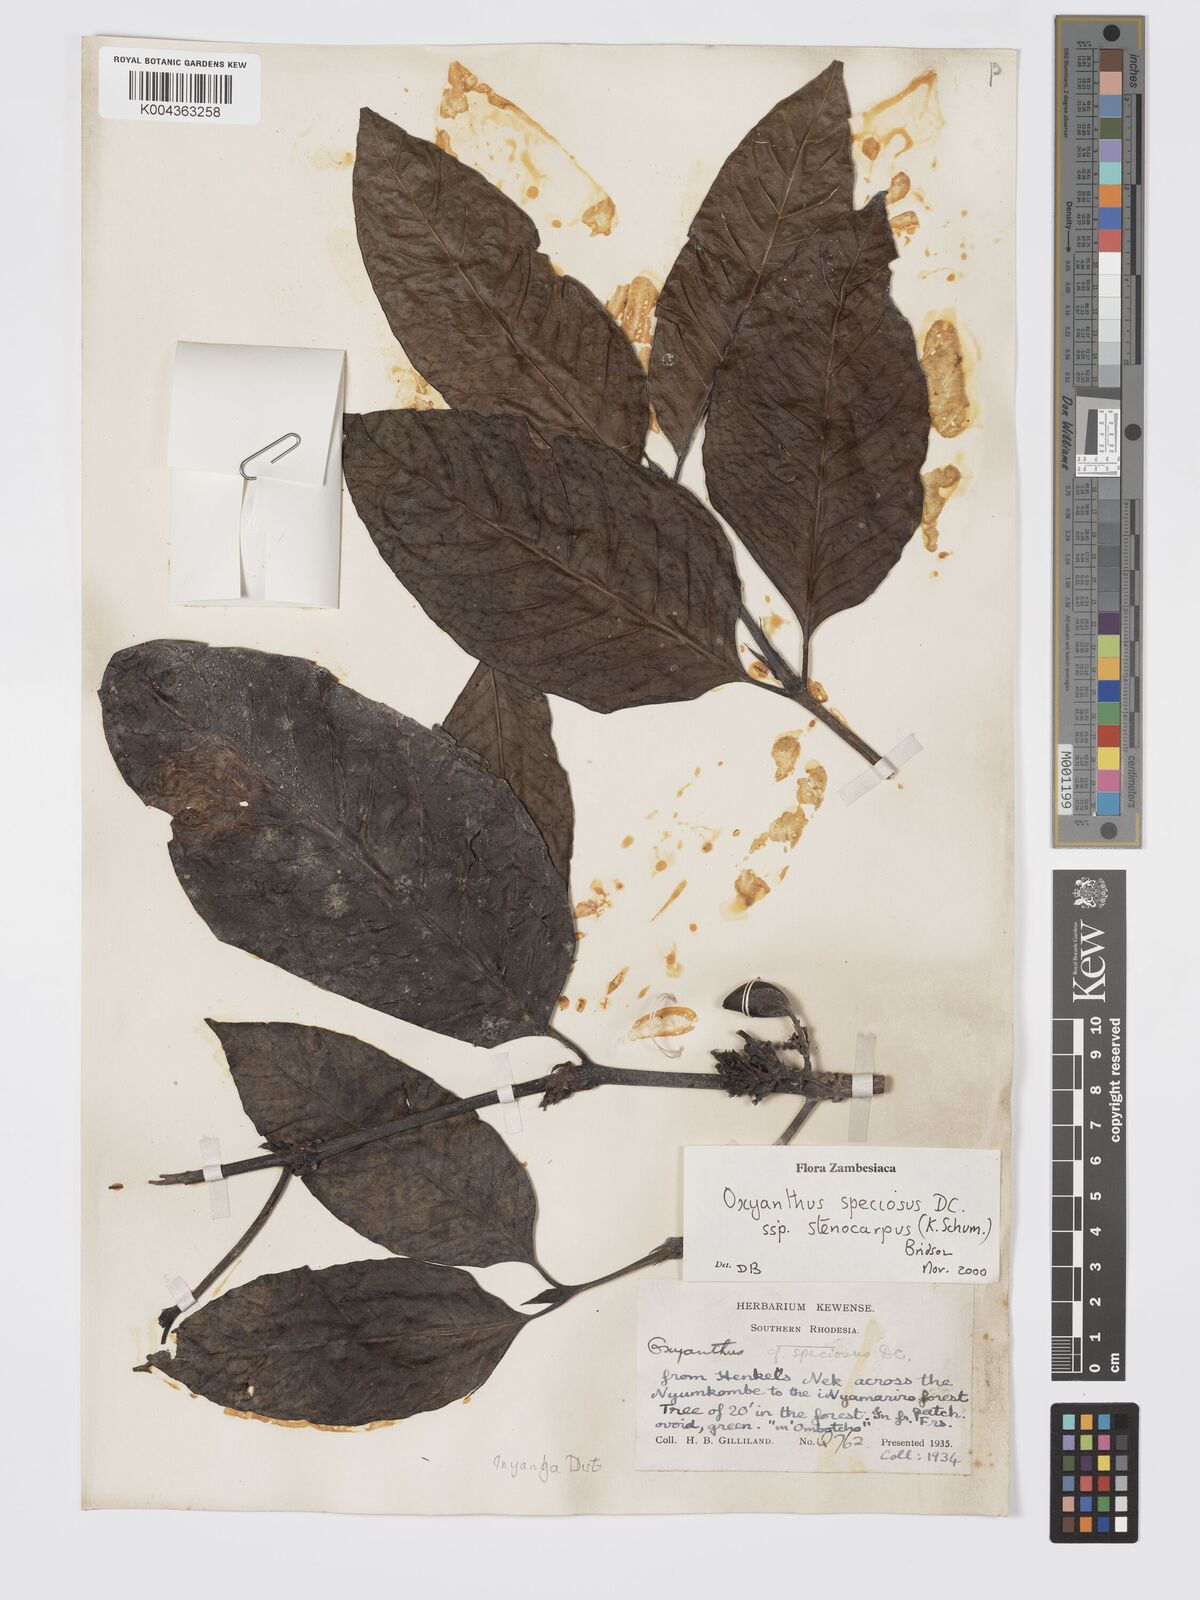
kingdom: Plantae
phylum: Tracheophyta
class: Magnoliopsida
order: Gentianales
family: Rubiaceae
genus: Oxyanthus
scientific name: Oxyanthus speciosus
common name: Whipstick loquat
